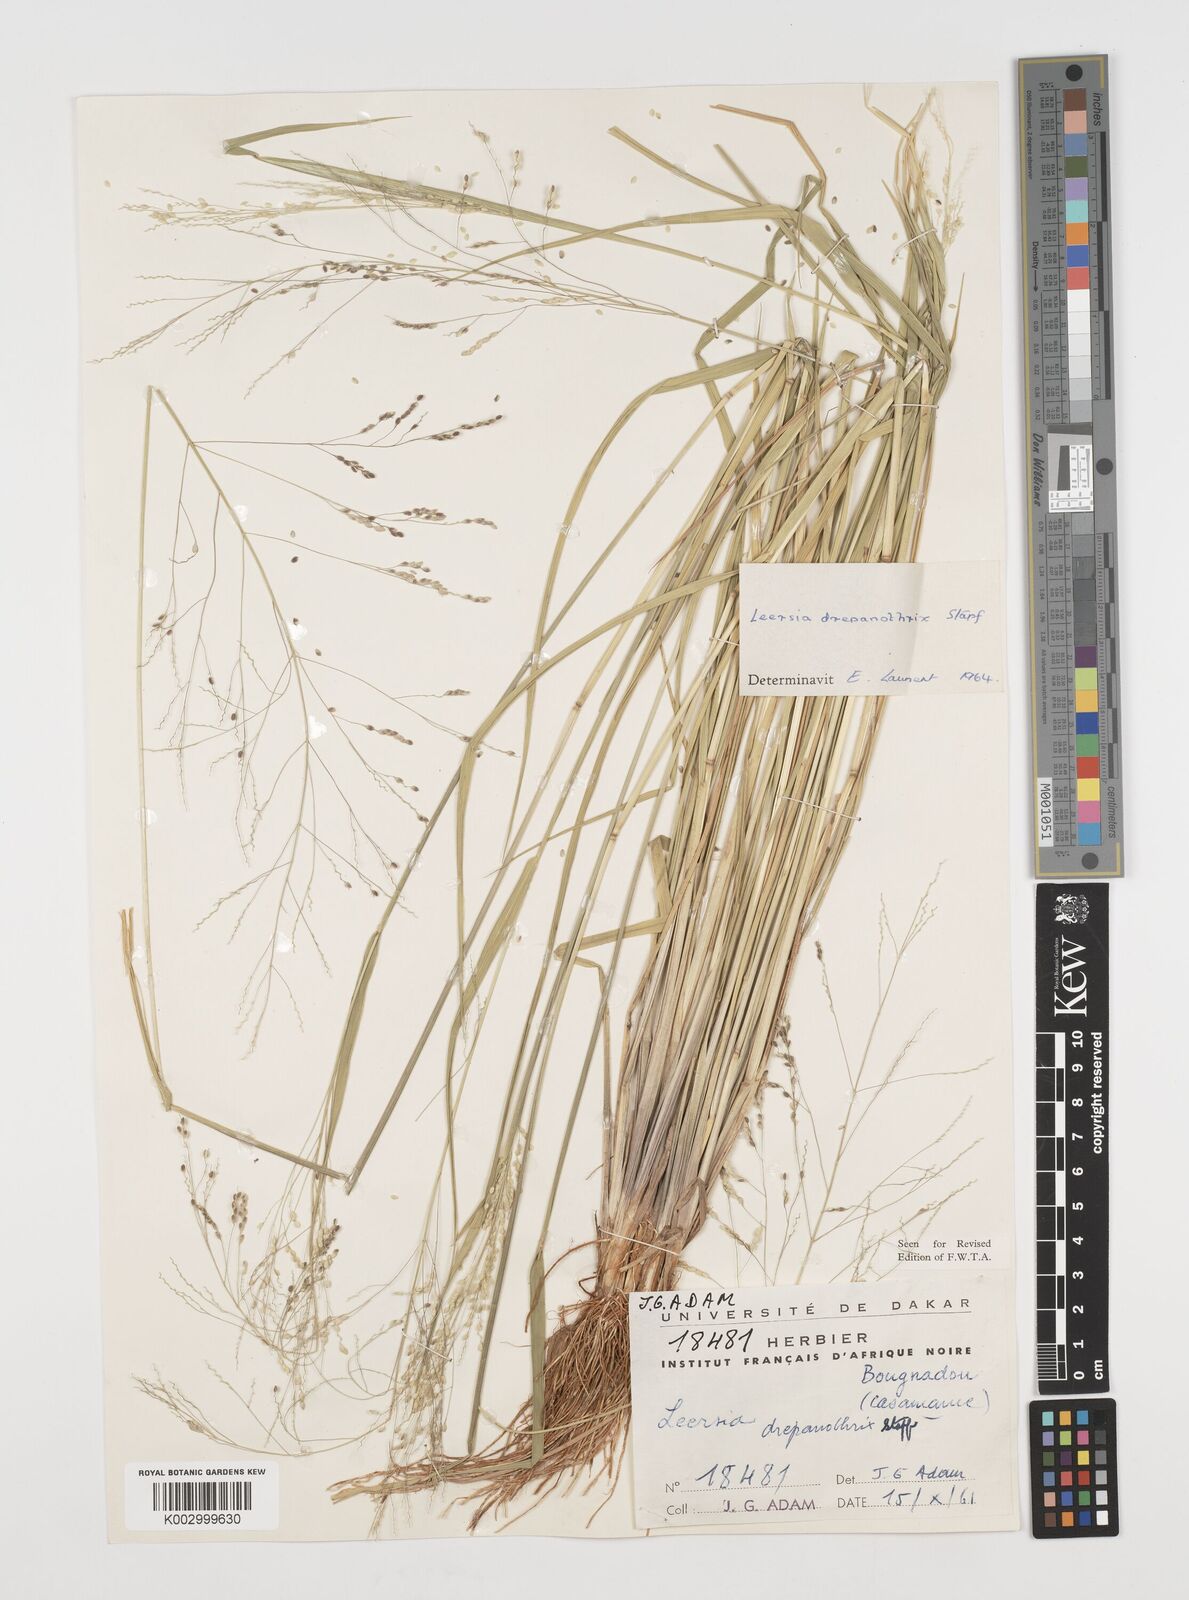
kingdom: Plantae
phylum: Tracheophyta
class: Liliopsida
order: Poales
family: Poaceae
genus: Leersia
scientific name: Leersia drepanothrix
